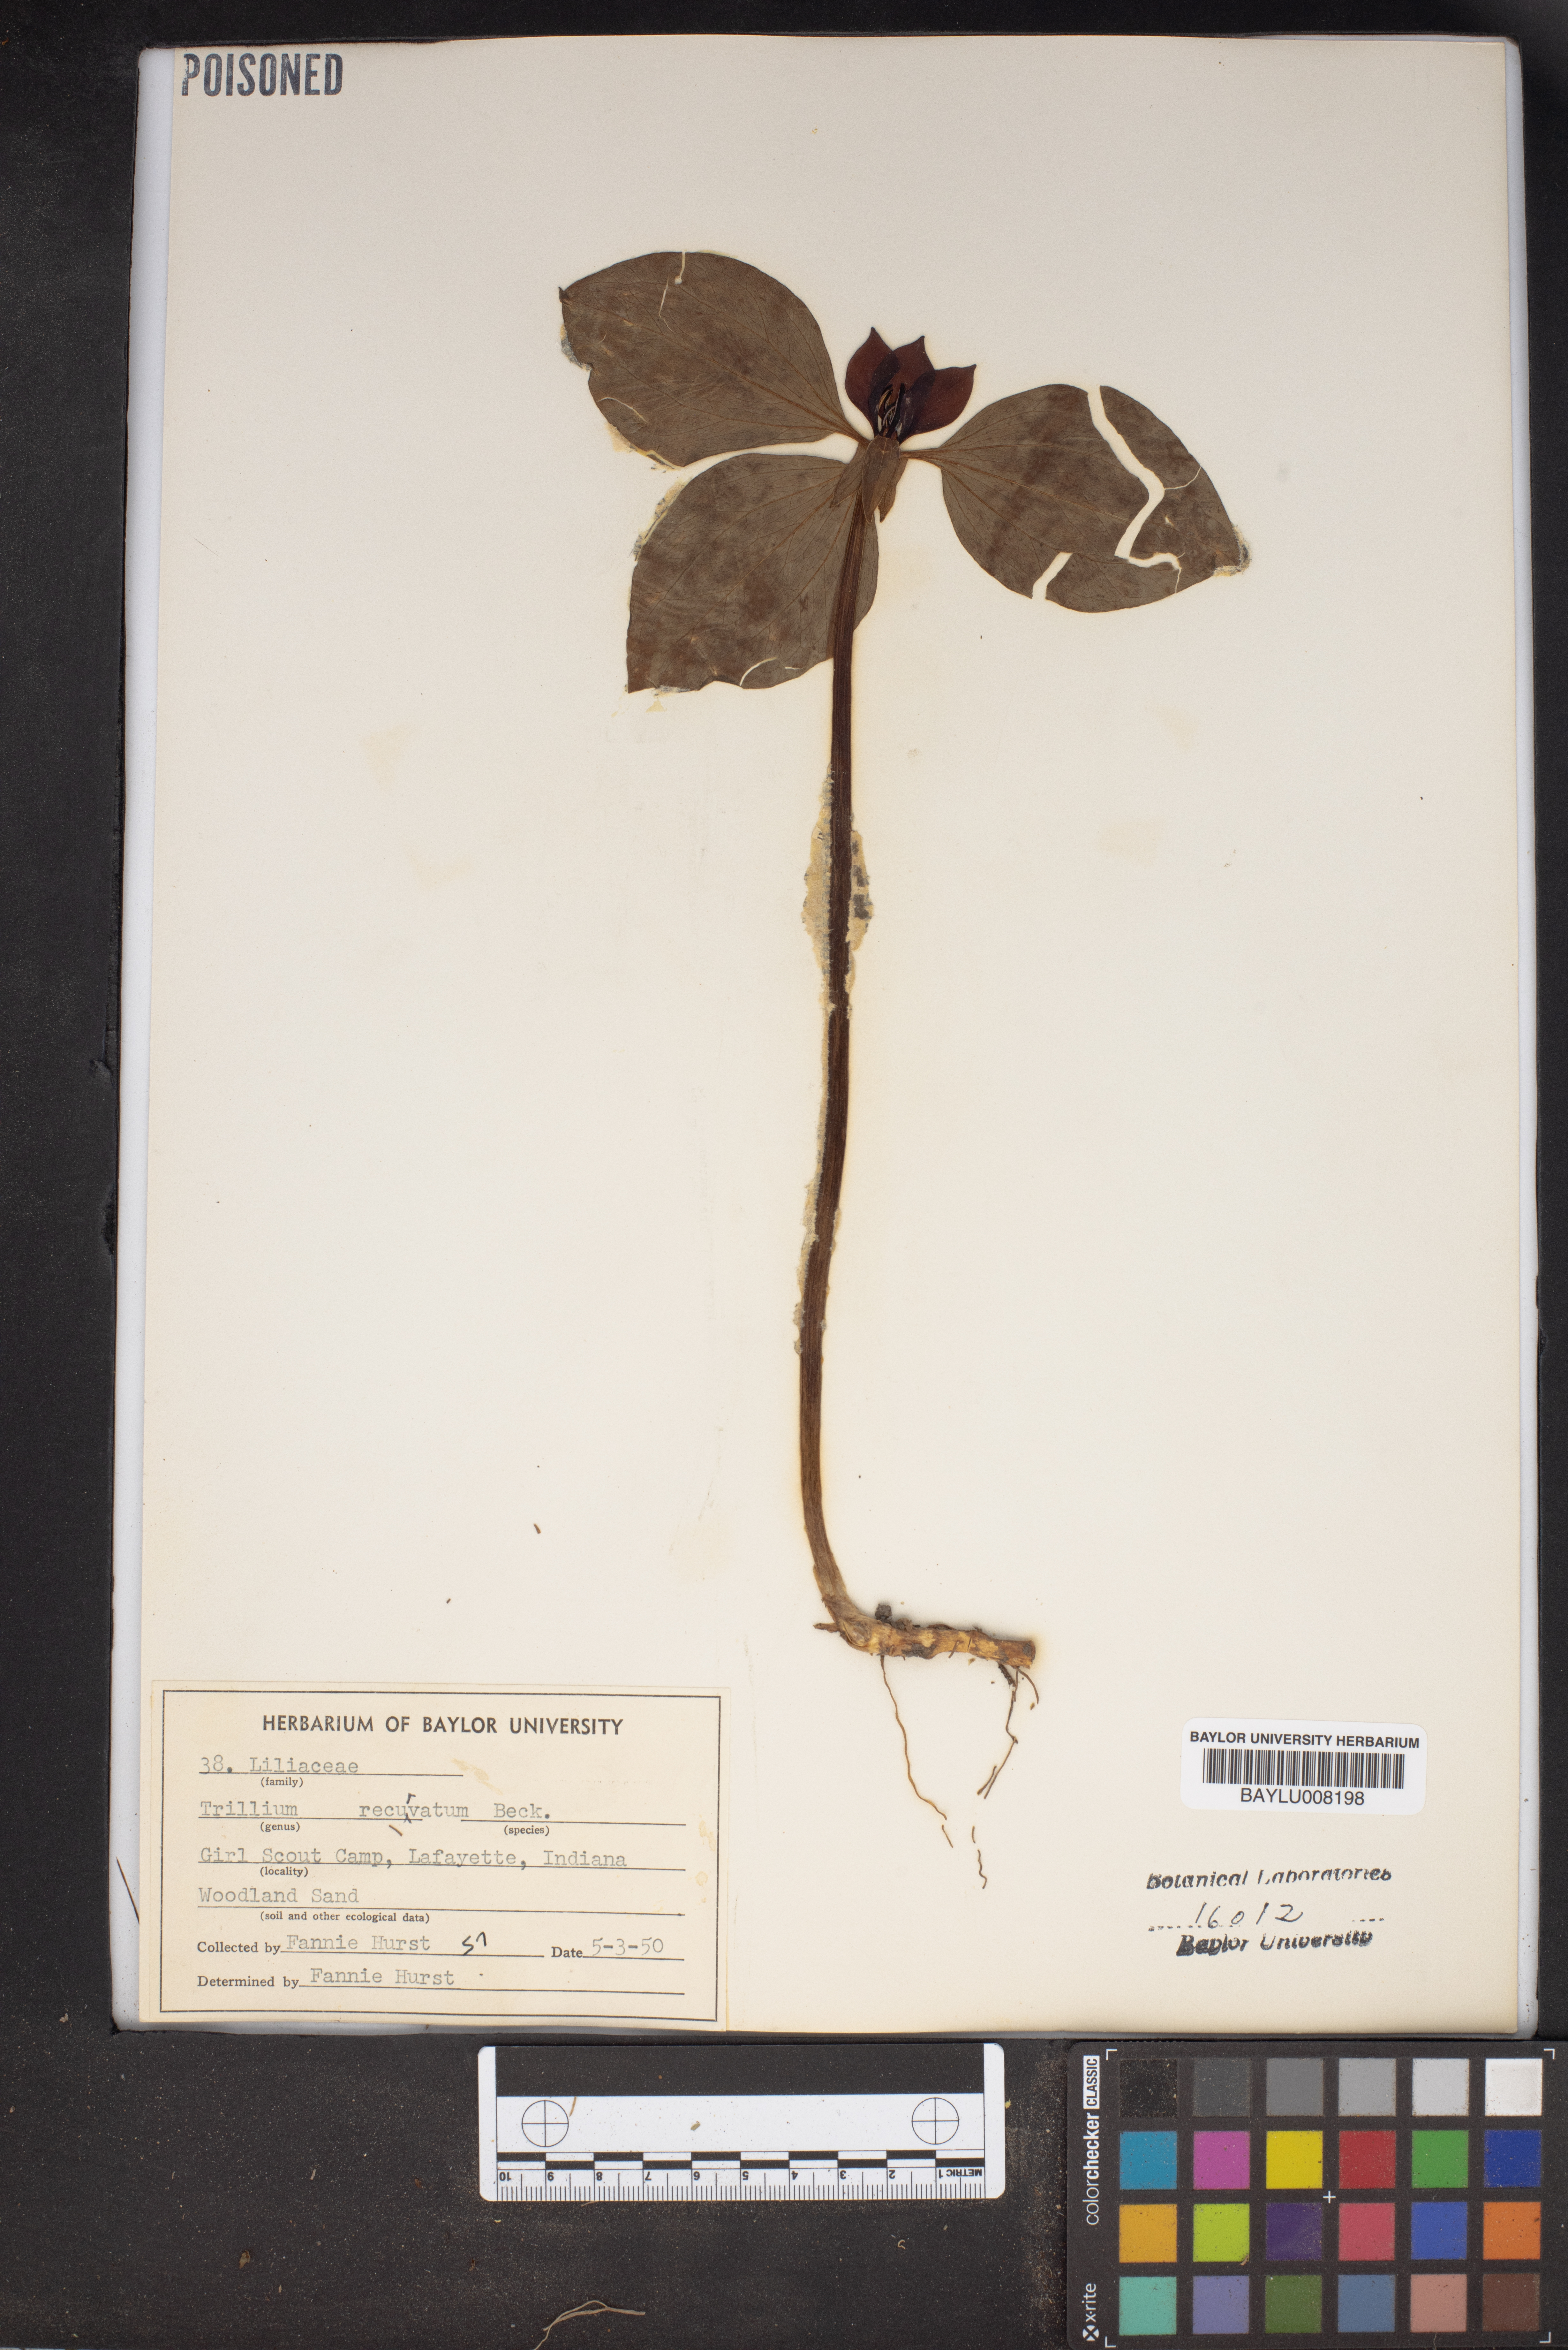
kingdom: Plantae
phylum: Tracheophyta
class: Liliopsida
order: Liliales
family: Melanthiaceae
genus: Trillium
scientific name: Trillium recurvatum
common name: Bloody butcher
